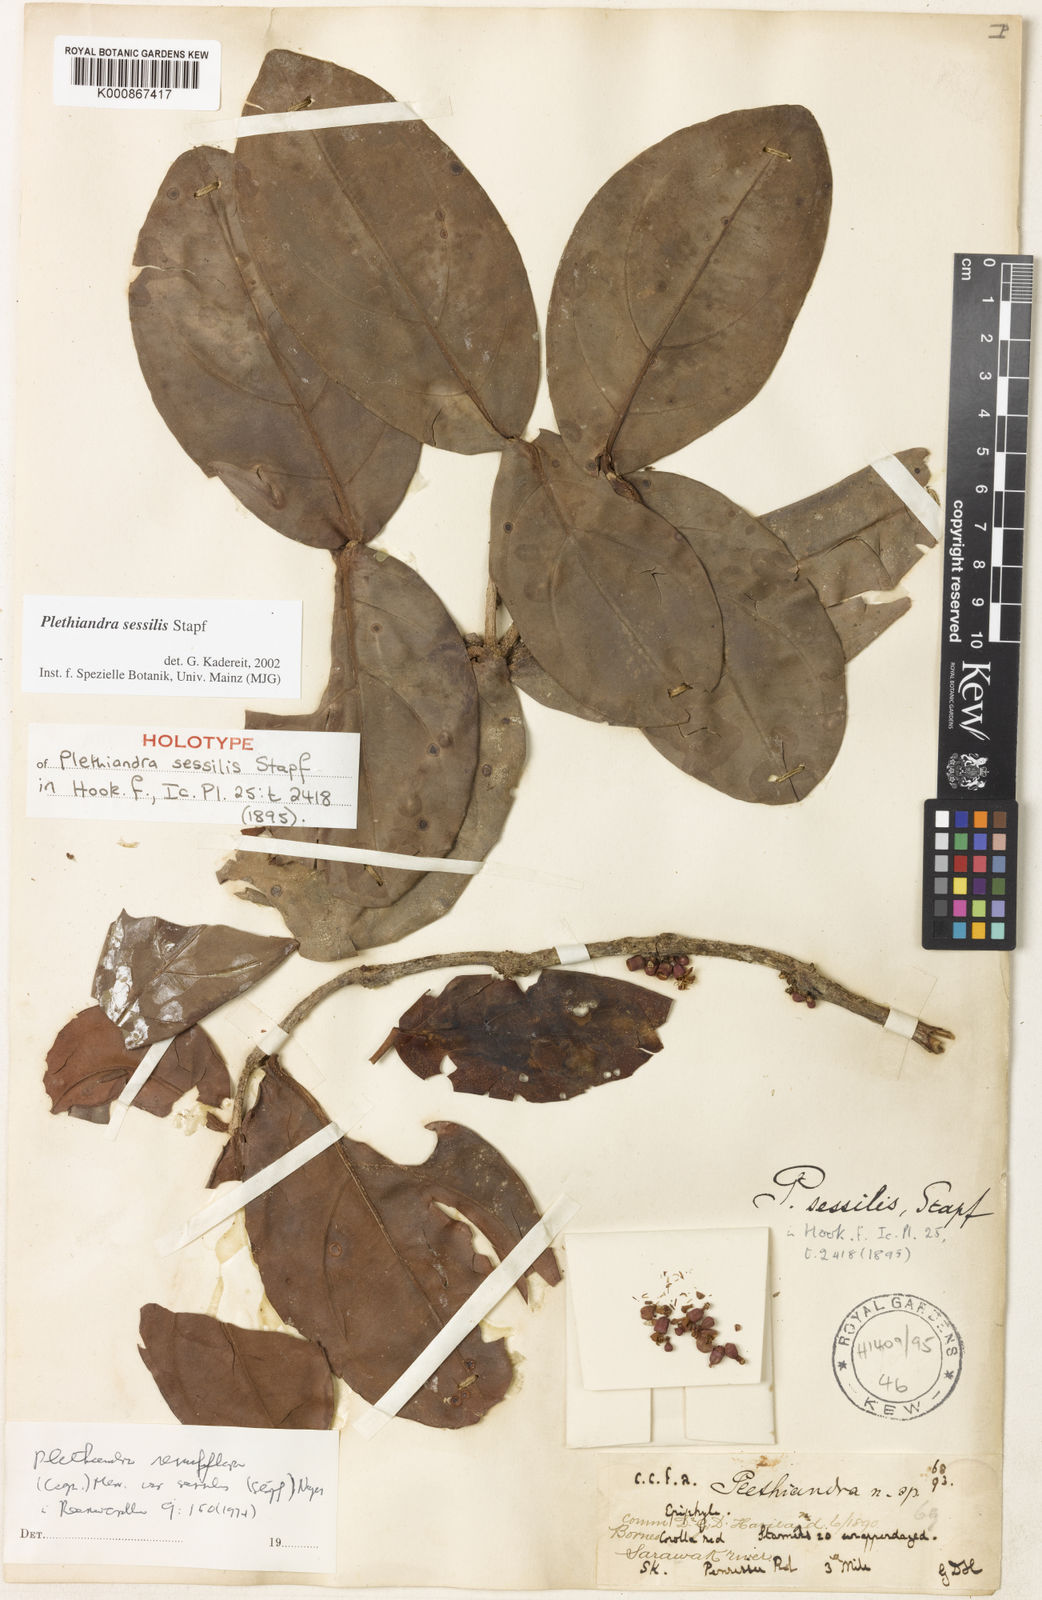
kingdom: Plantae
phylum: Tracheophyta
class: Magnoliopsida
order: Myrtales
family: Melastomataceae
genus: Plethiandra
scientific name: Plethiandra sessilis
